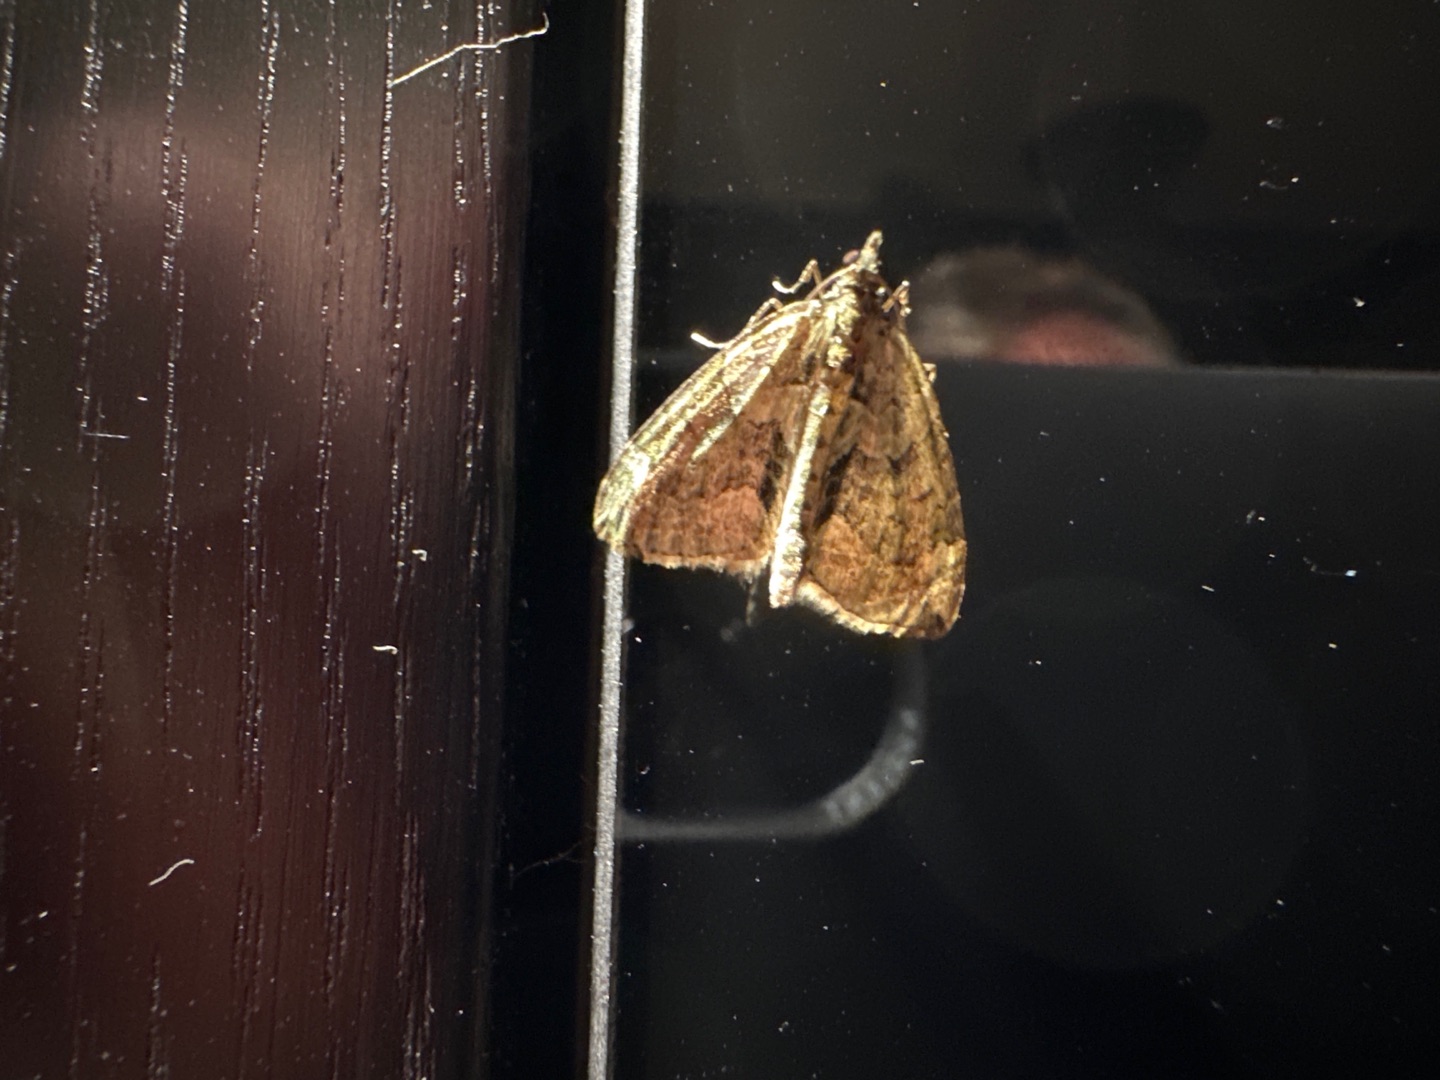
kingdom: Animalia
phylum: Arthropoda
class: Insecta
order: Lepidoptera
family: Geometridae
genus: Chloroclysta
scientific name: Chloroclysta siterata
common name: Brungrøn bladmåler
